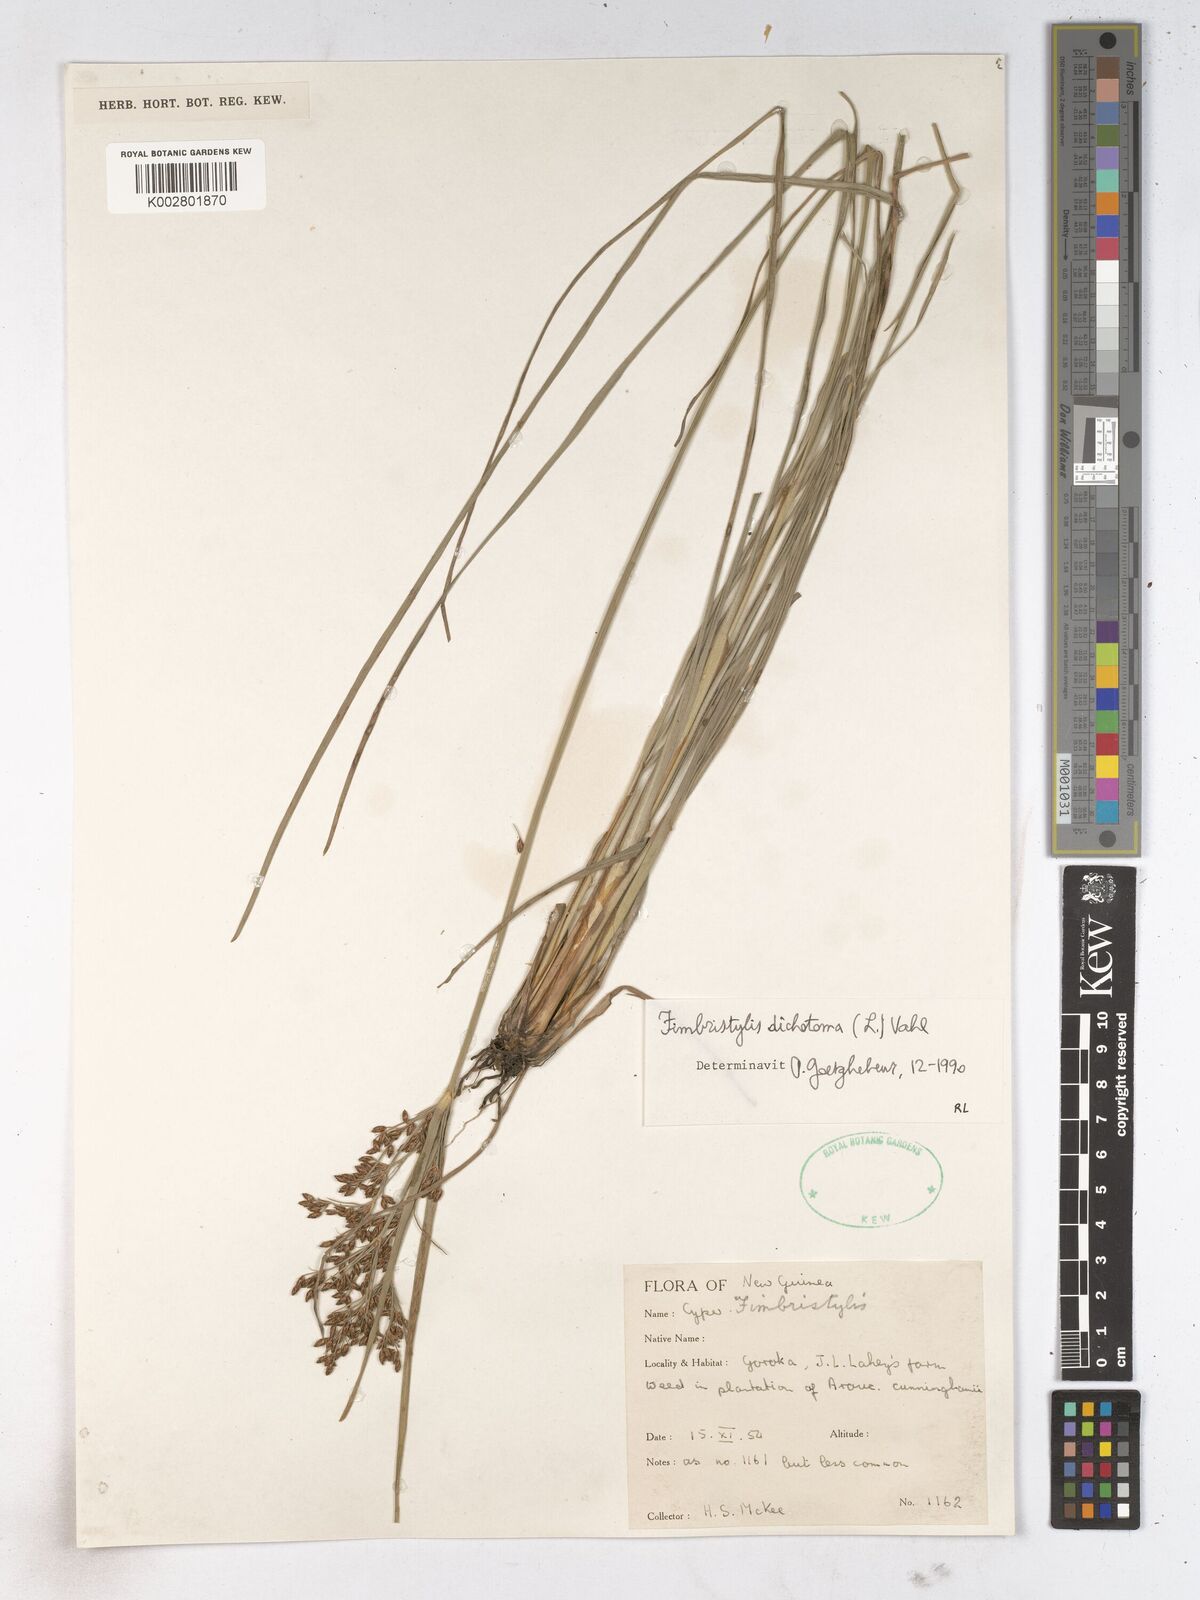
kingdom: Plantae
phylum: Tracheophyta
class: Liliopsida
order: Poales
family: Cyperaceae
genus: Fimbristylis
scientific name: Fimbristylis dichotoma
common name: Forked fimbry
